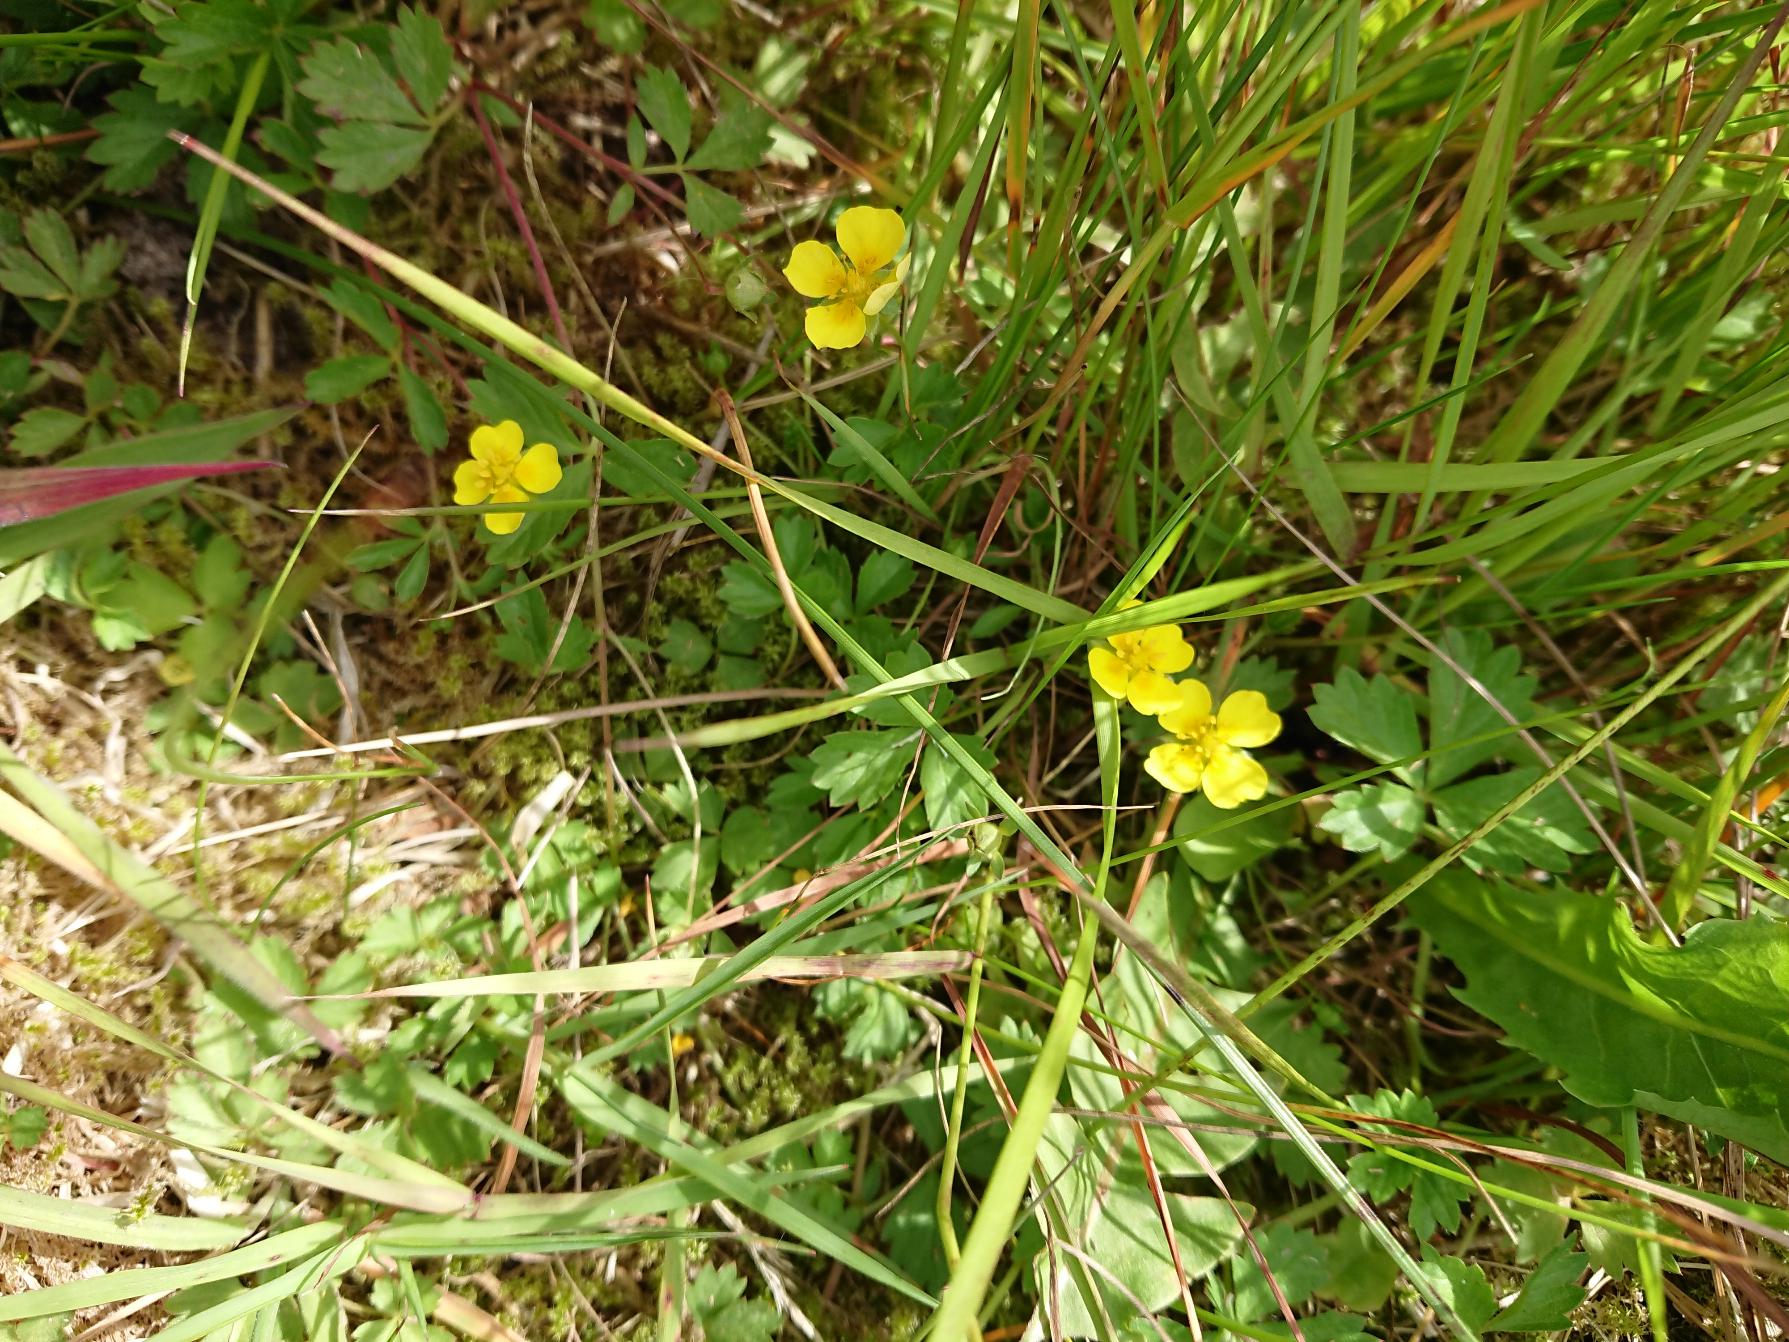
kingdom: Plantae
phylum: Tracheophyta
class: Magnoliopsida
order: Rosales
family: Rosaceae
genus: Potentilla
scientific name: Potentilla anglica
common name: Liggende potentil
